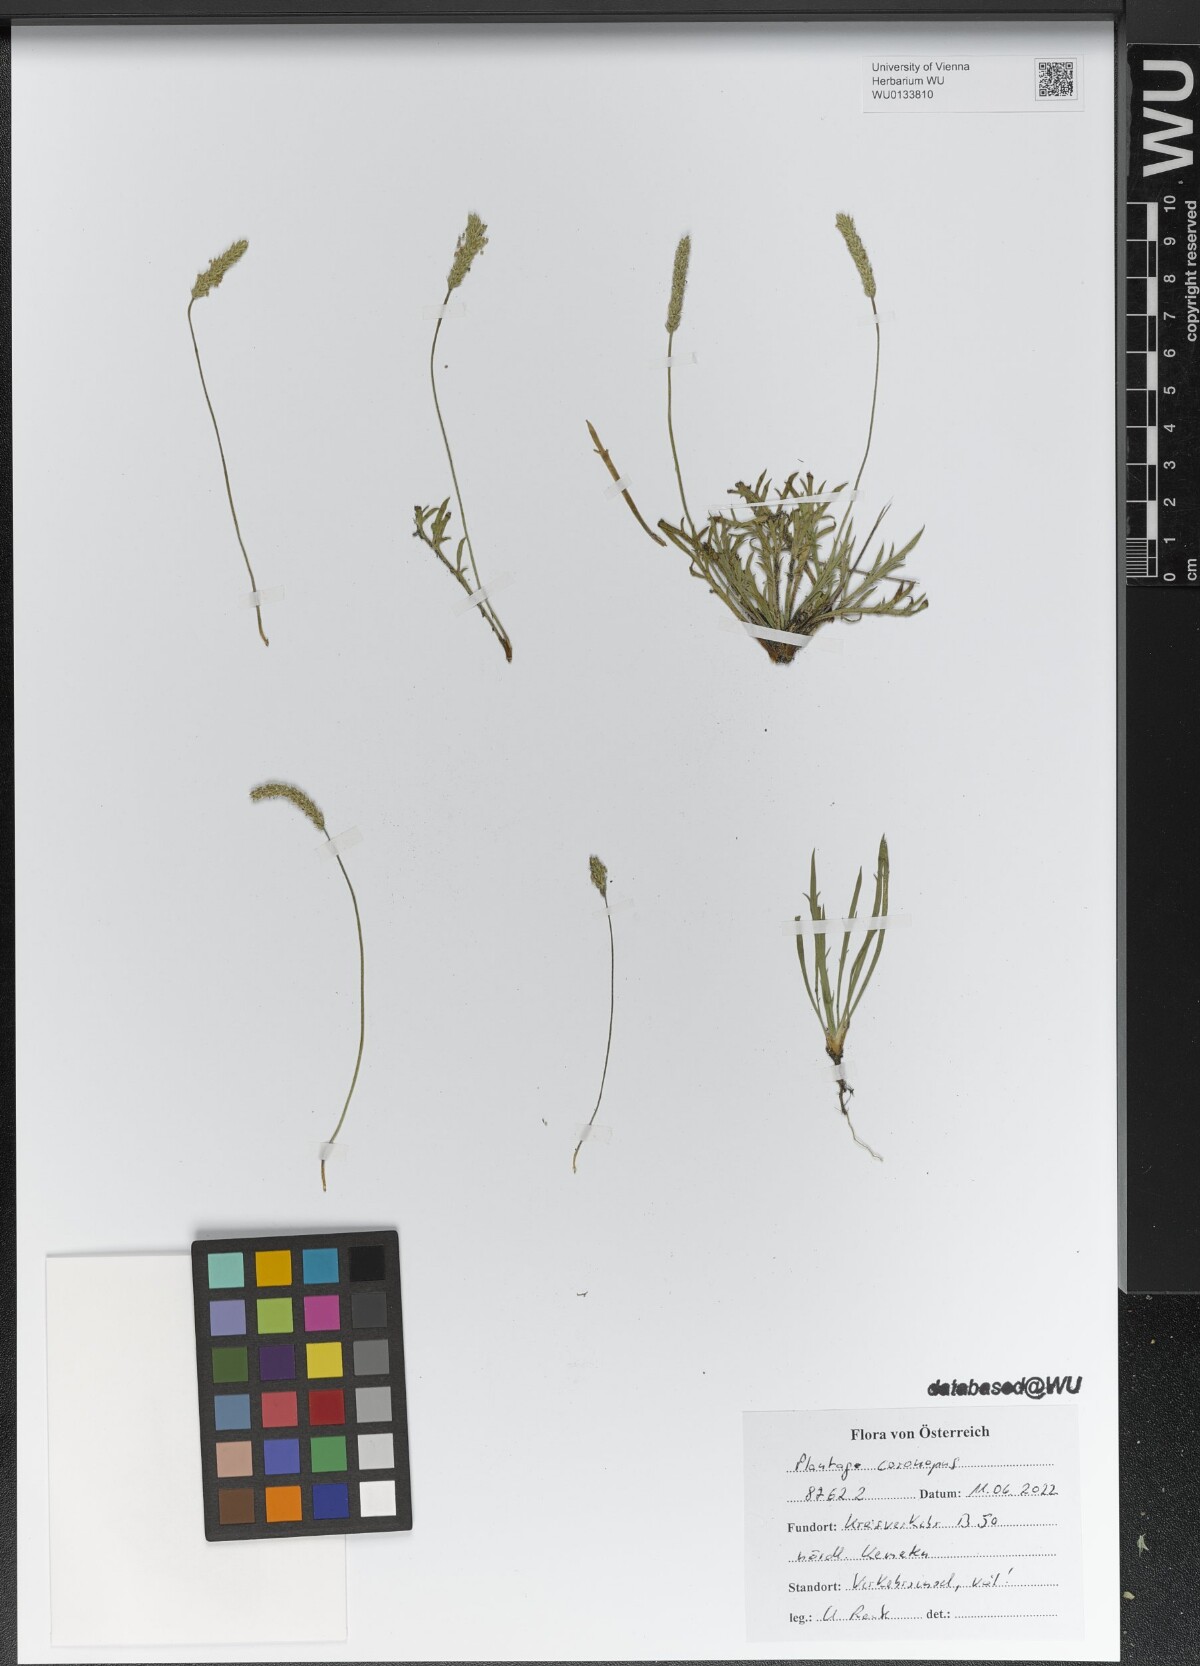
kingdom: Plantae
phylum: Tracheophyta
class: Magnoliopsida
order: Lamiales
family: Plantaginaceae
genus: Plantago
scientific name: Plantago coronopus
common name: Buck's-horn plantain
